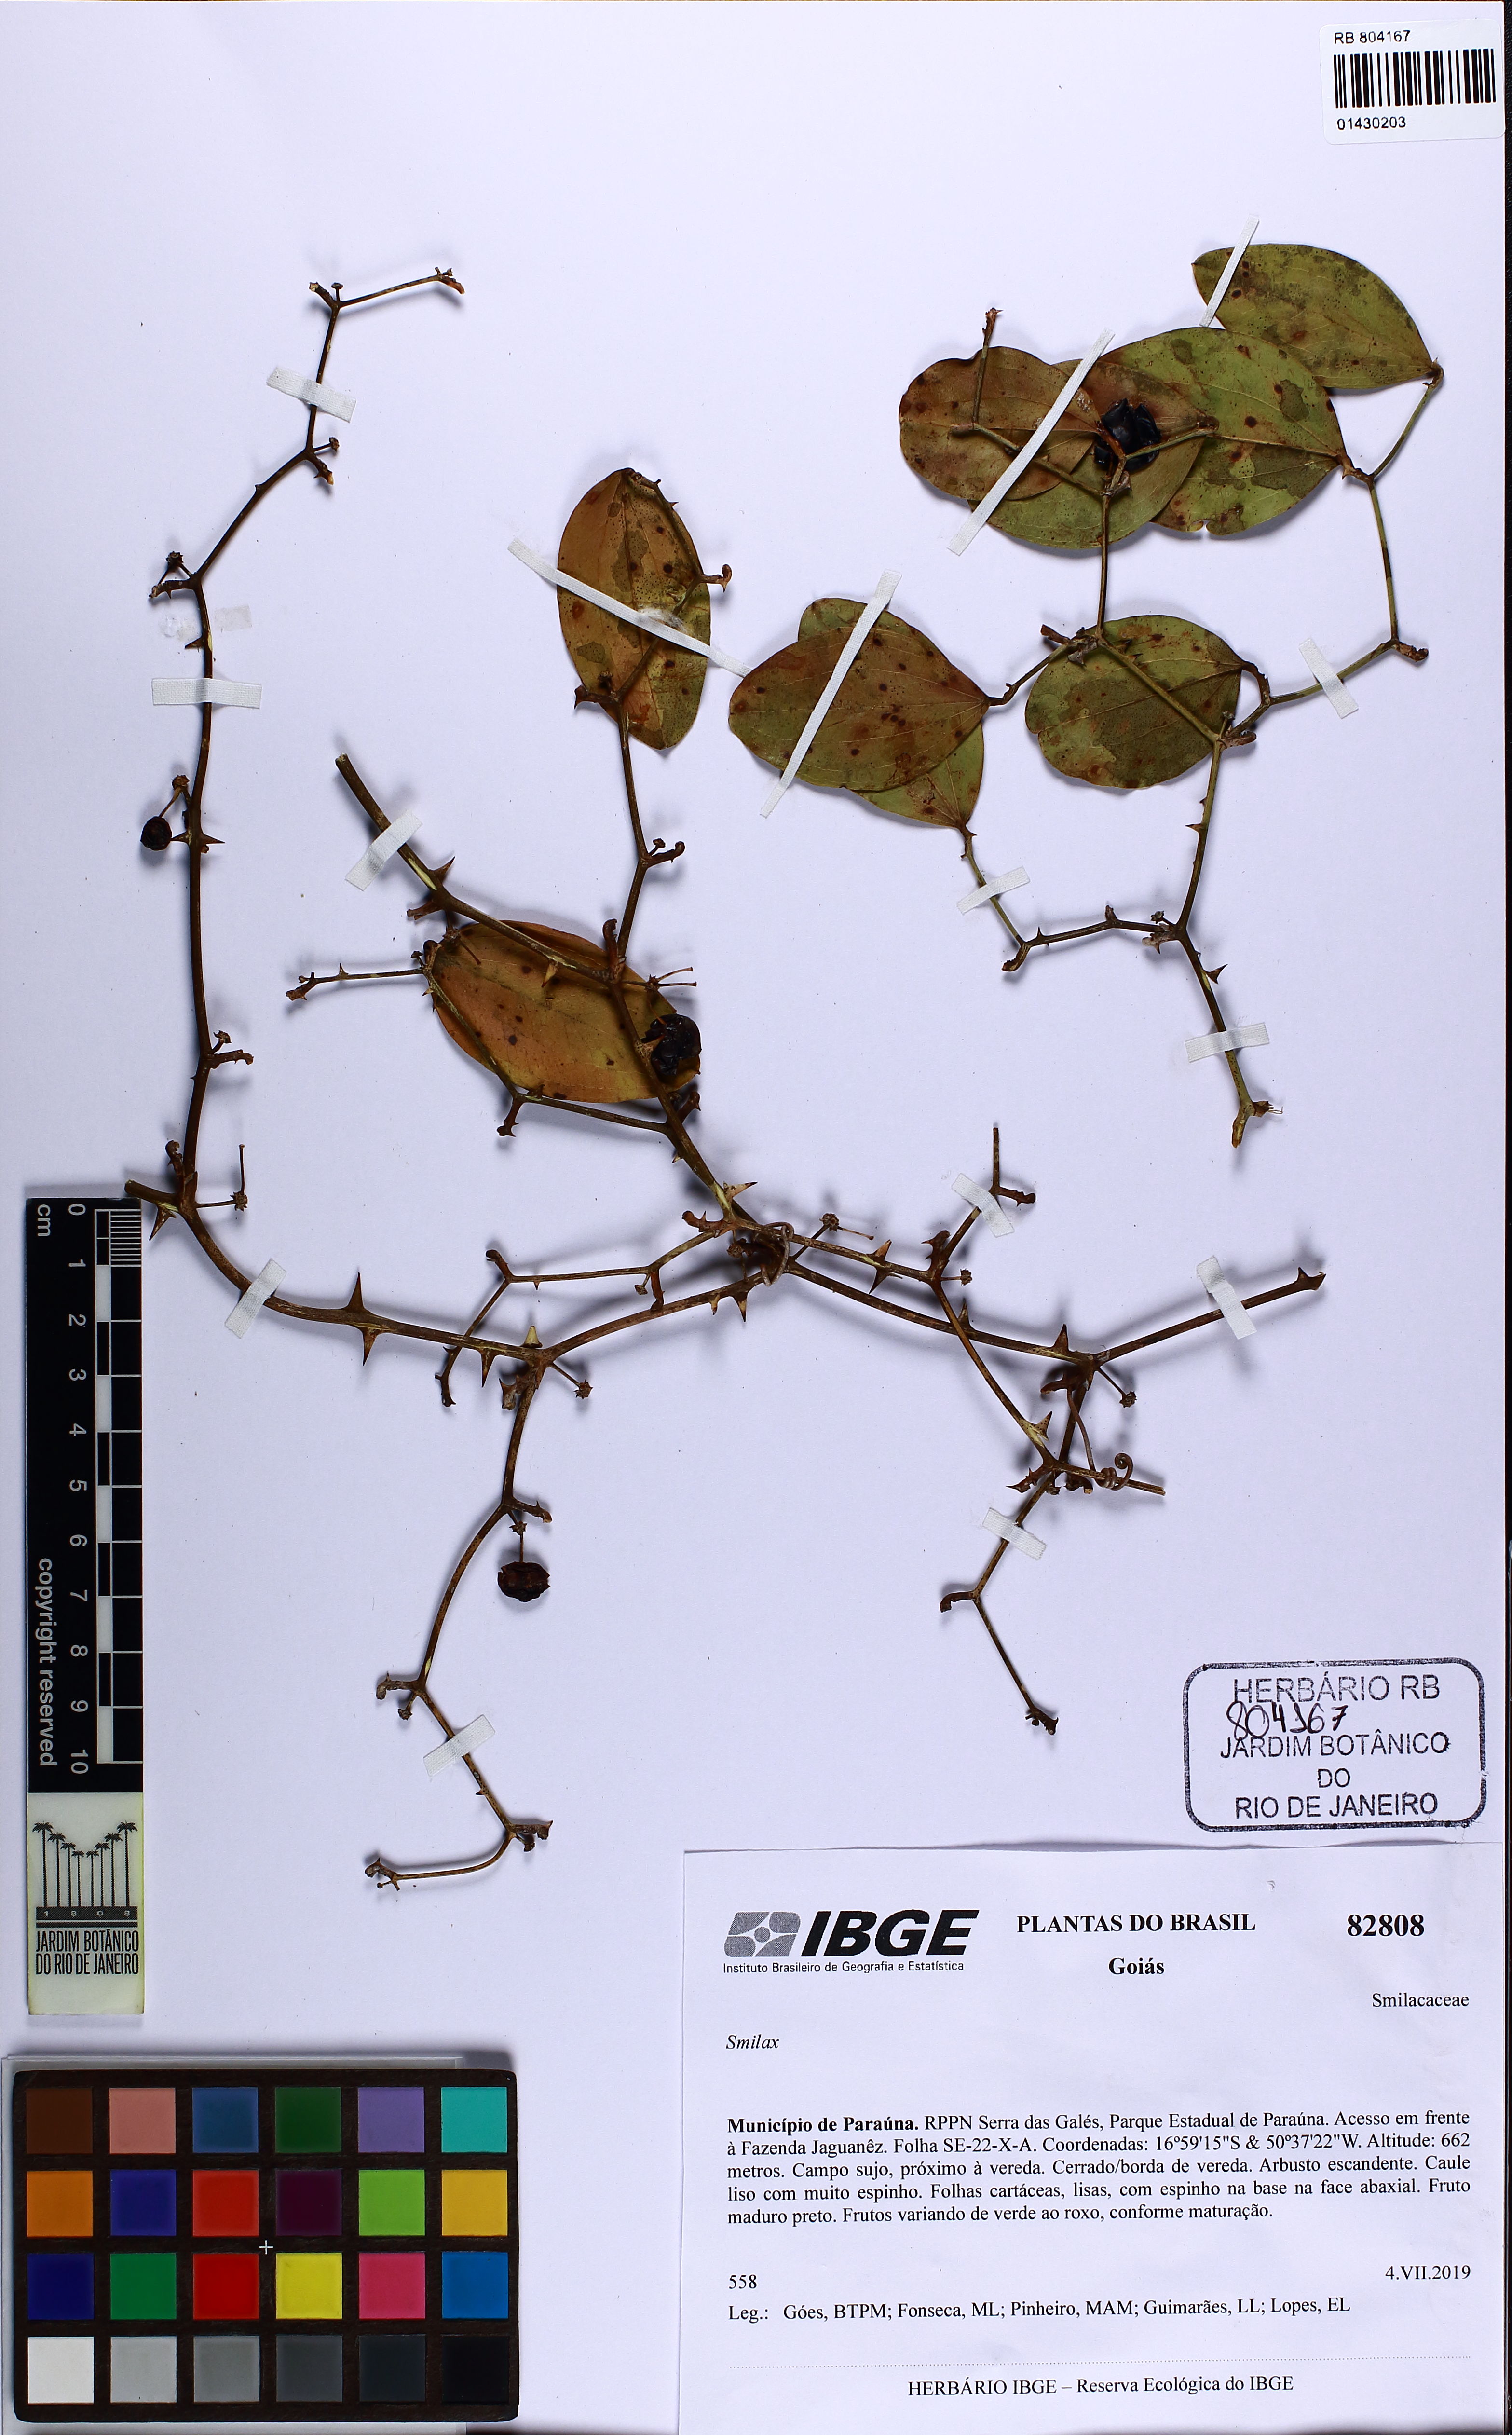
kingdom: Plantae
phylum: Tracheophyta
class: Liliopsida
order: Liliales
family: Smilacaceae
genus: Smilax
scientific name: Smilax
